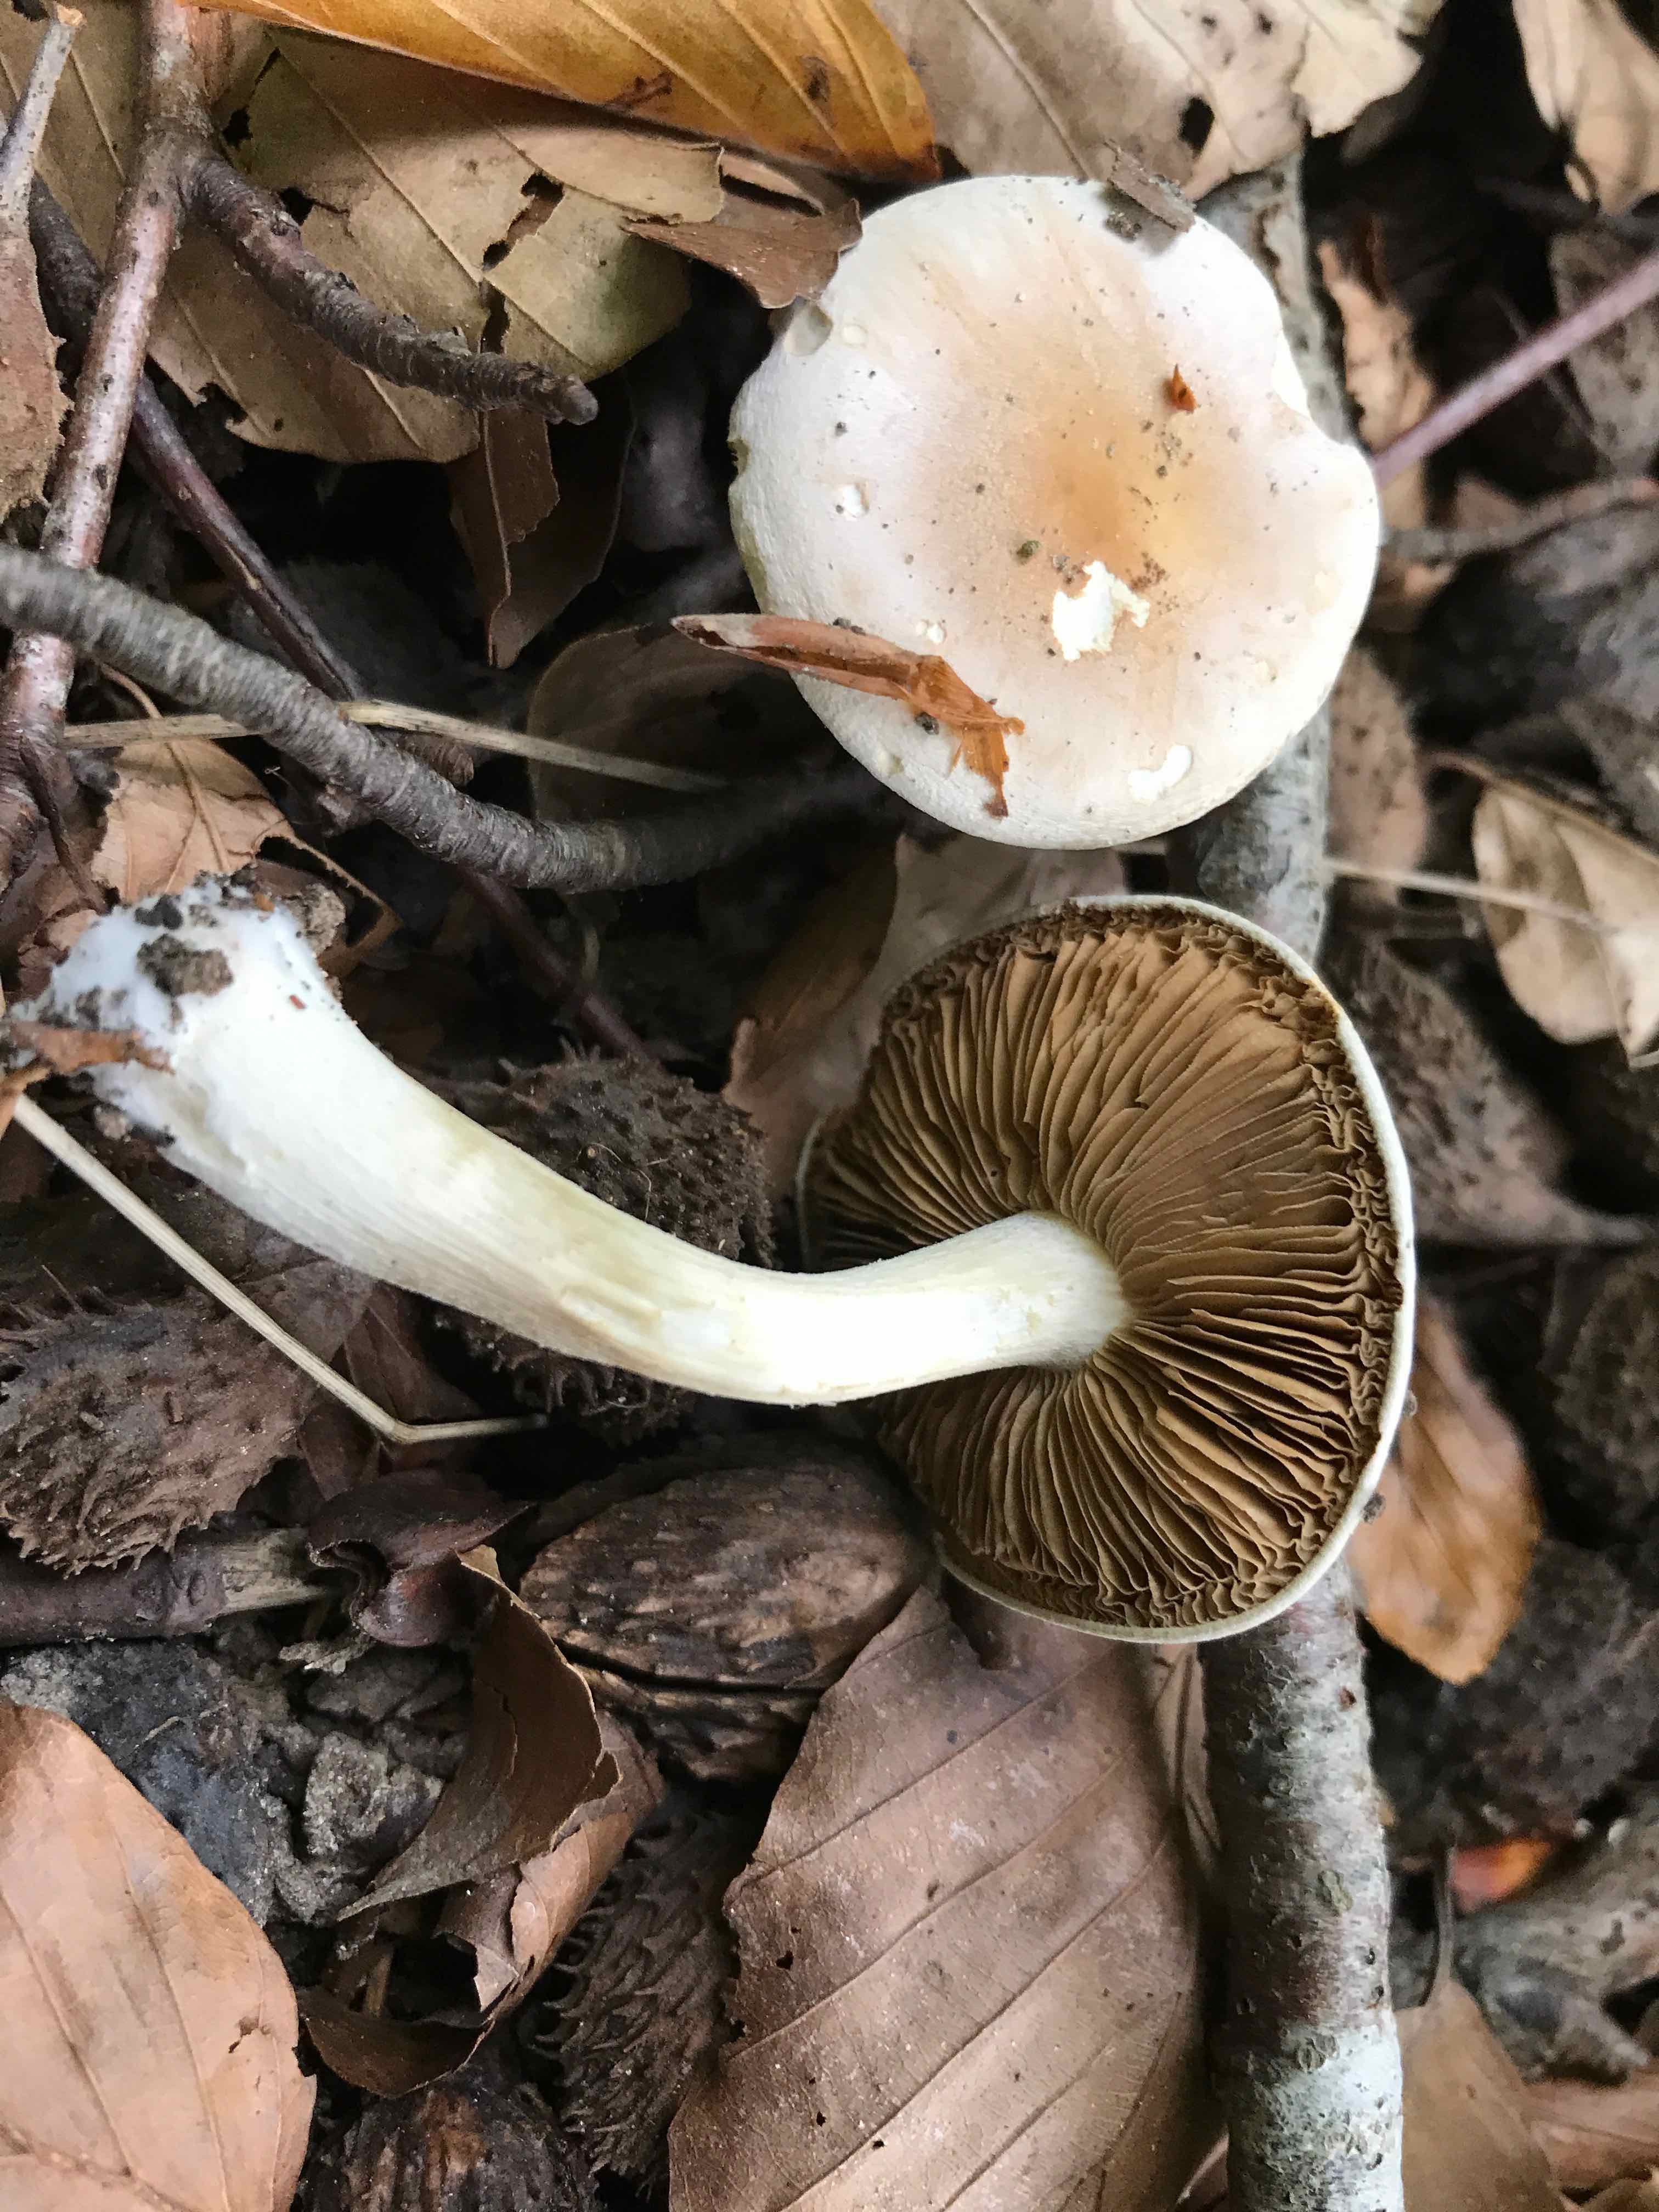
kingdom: Fungi
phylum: Basidiomycota
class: Agaricomycetes
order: Agaricales
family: Hymenogastraceae
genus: Hebeloma
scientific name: Hebeloma
